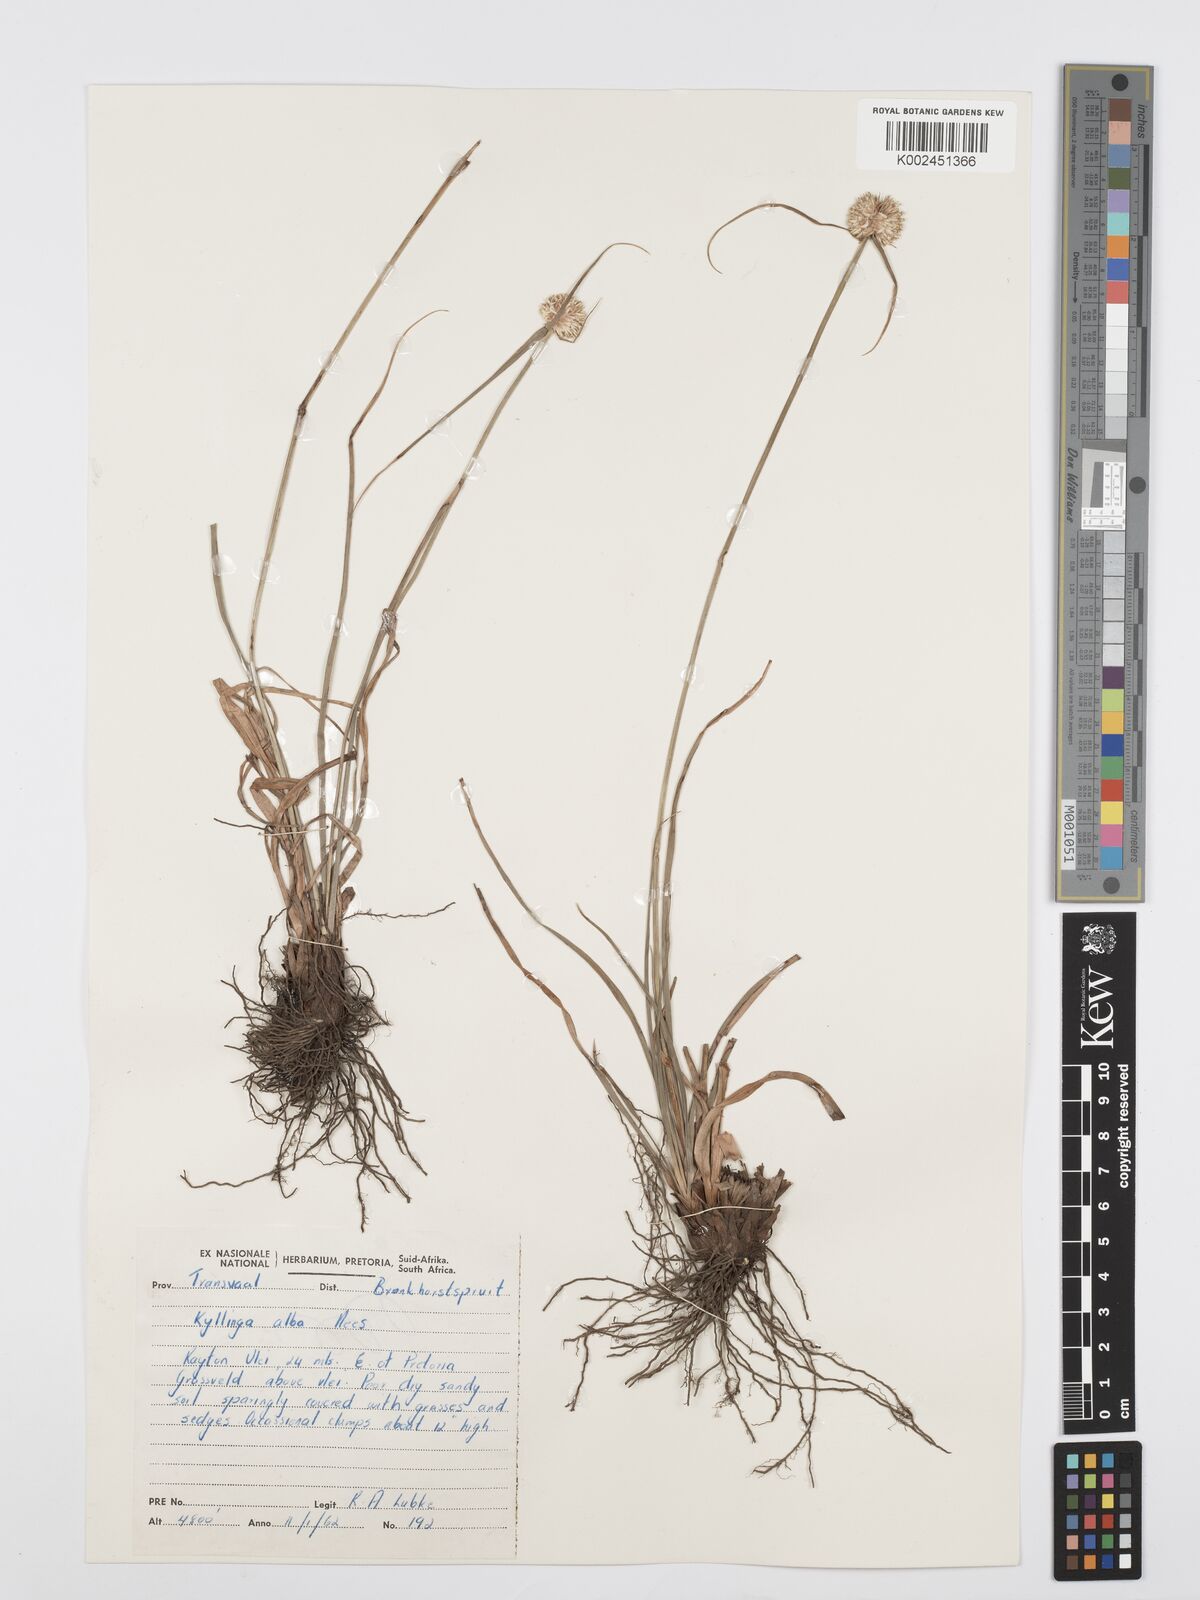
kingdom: Plantae
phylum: Tracheophyta
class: Liliopsida
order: Poales
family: Cyperaceae
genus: Cyperus
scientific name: Cyperus
